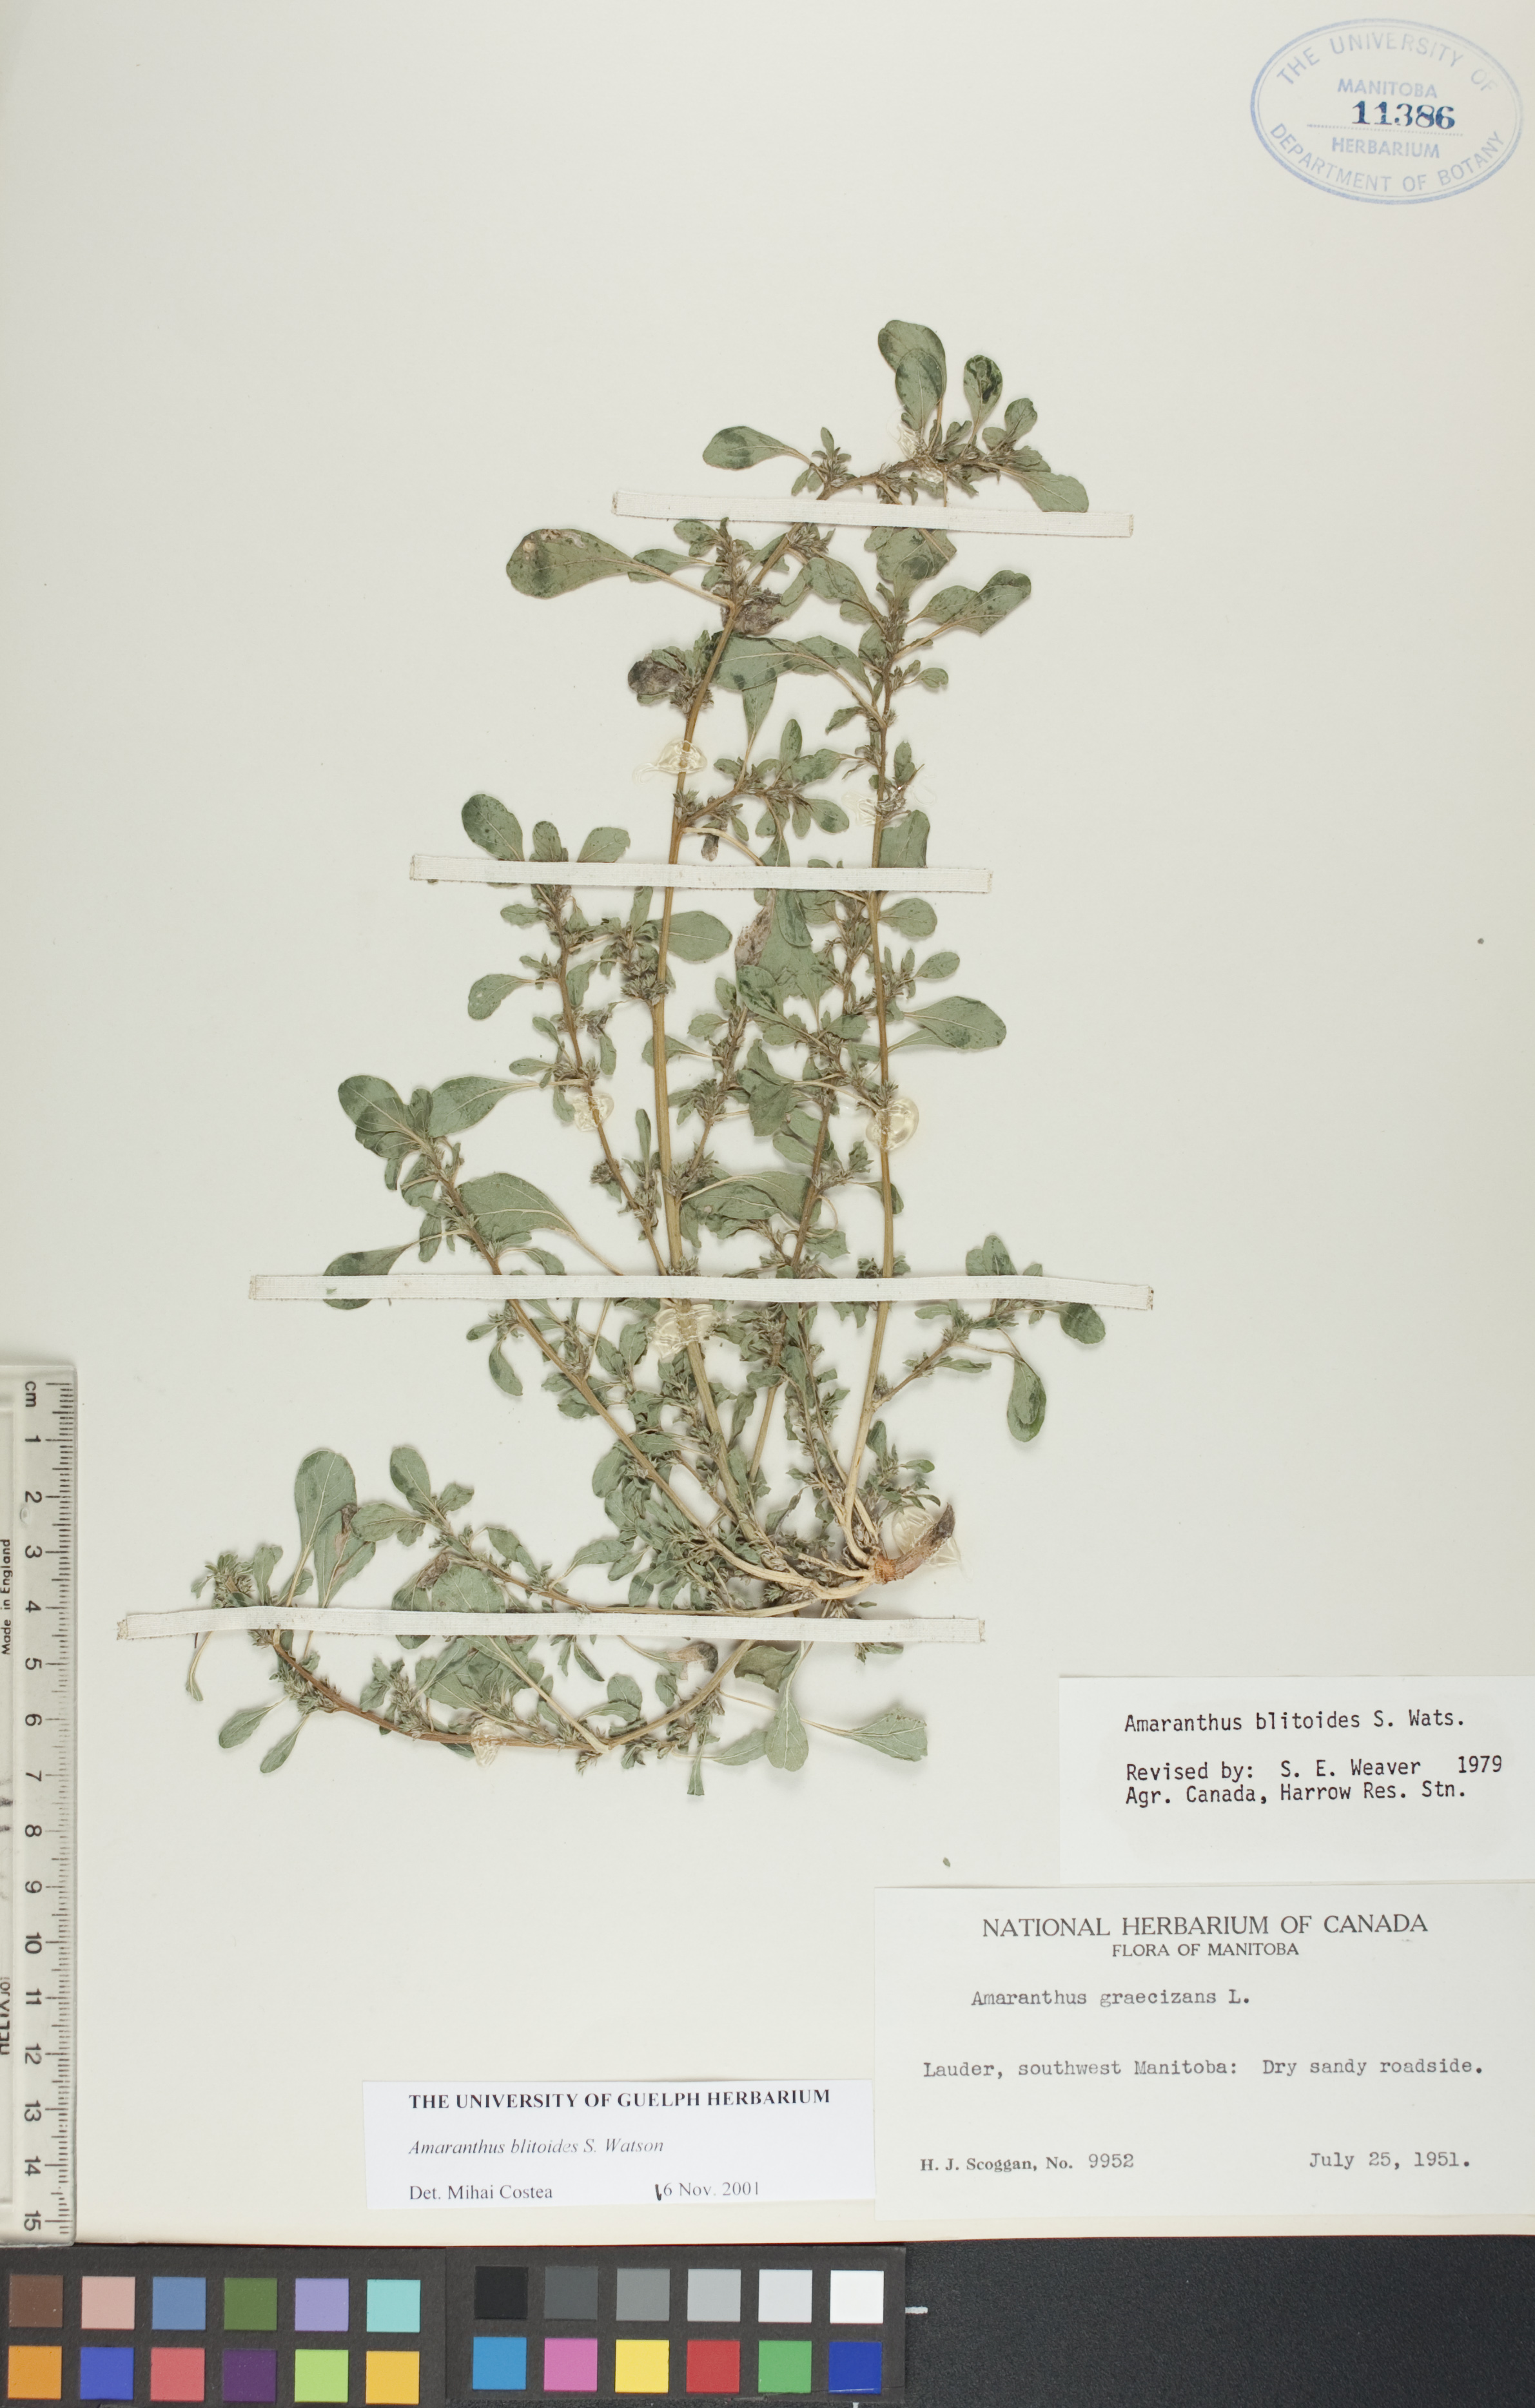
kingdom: Plantae
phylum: Tracheophyta
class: Magnoliopsida
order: Caryophyllales
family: Amaranthaceae
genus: Amaranthus
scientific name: Amaranthus blitoides
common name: Prostrate pigweed
